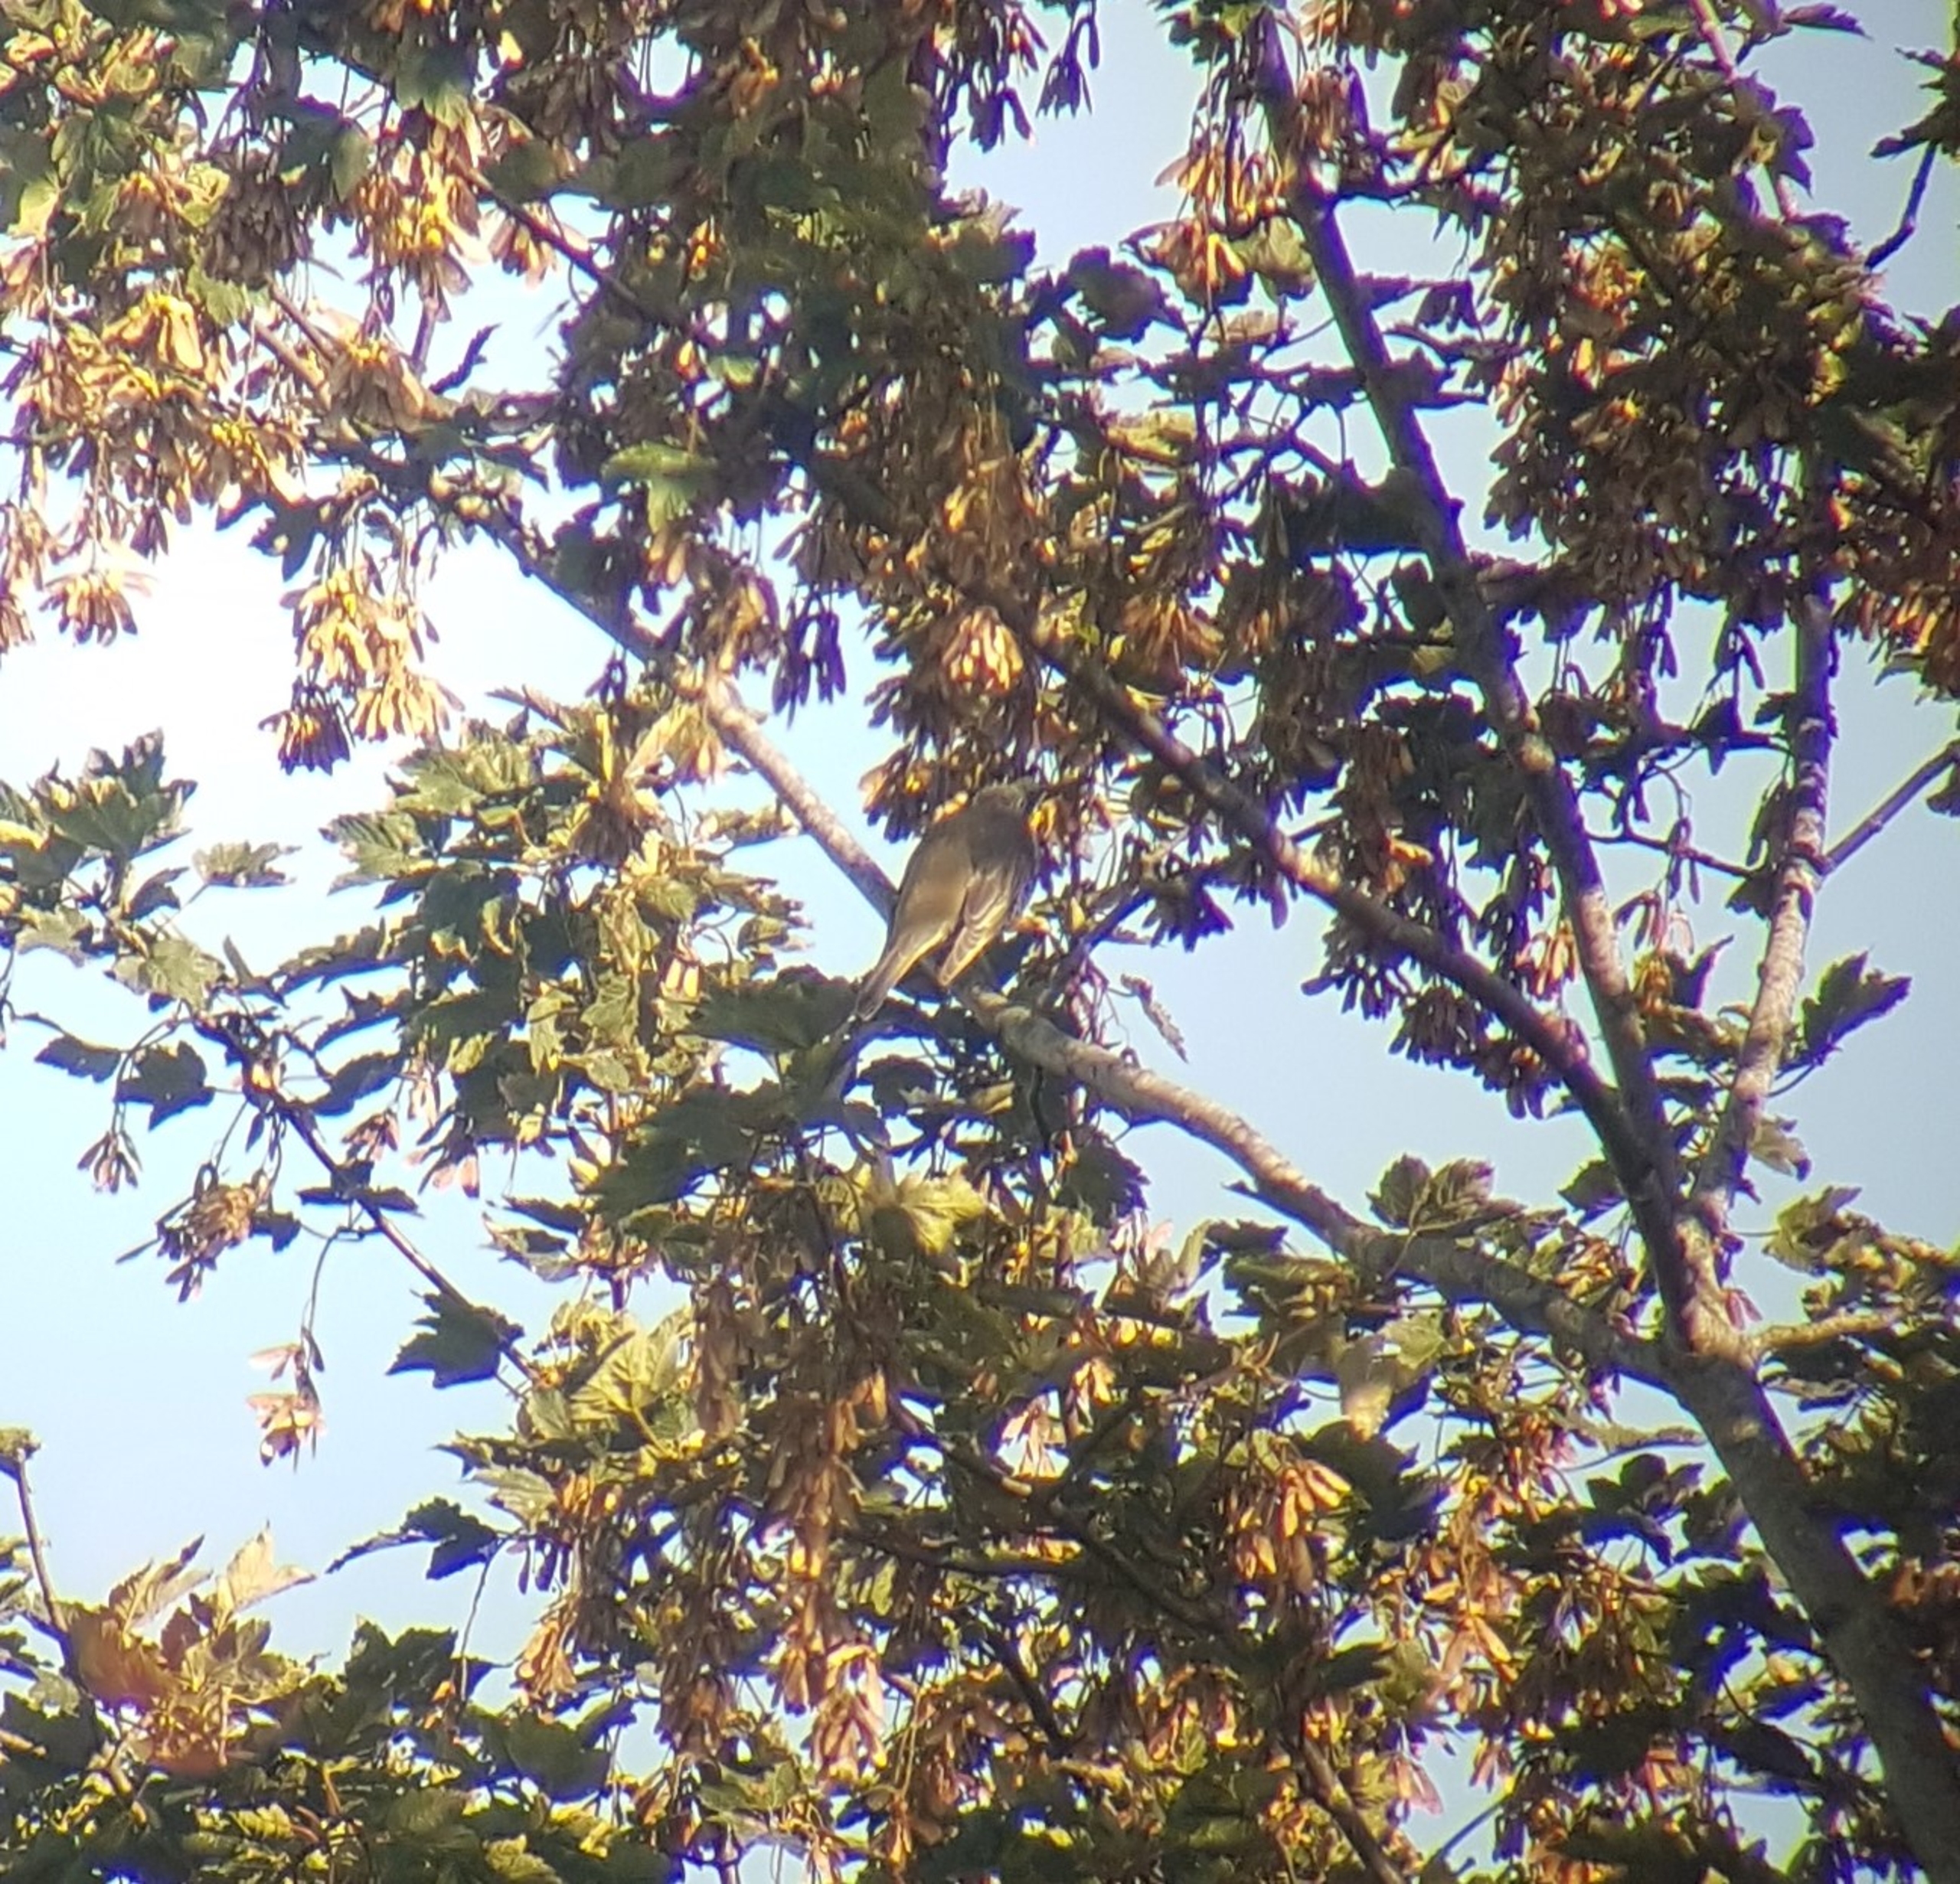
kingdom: Animalia
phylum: Chordata
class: Aves
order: Passeriformes
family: Turdidae
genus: Turdus
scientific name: Turdus viscivorus
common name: Misteldrossel
